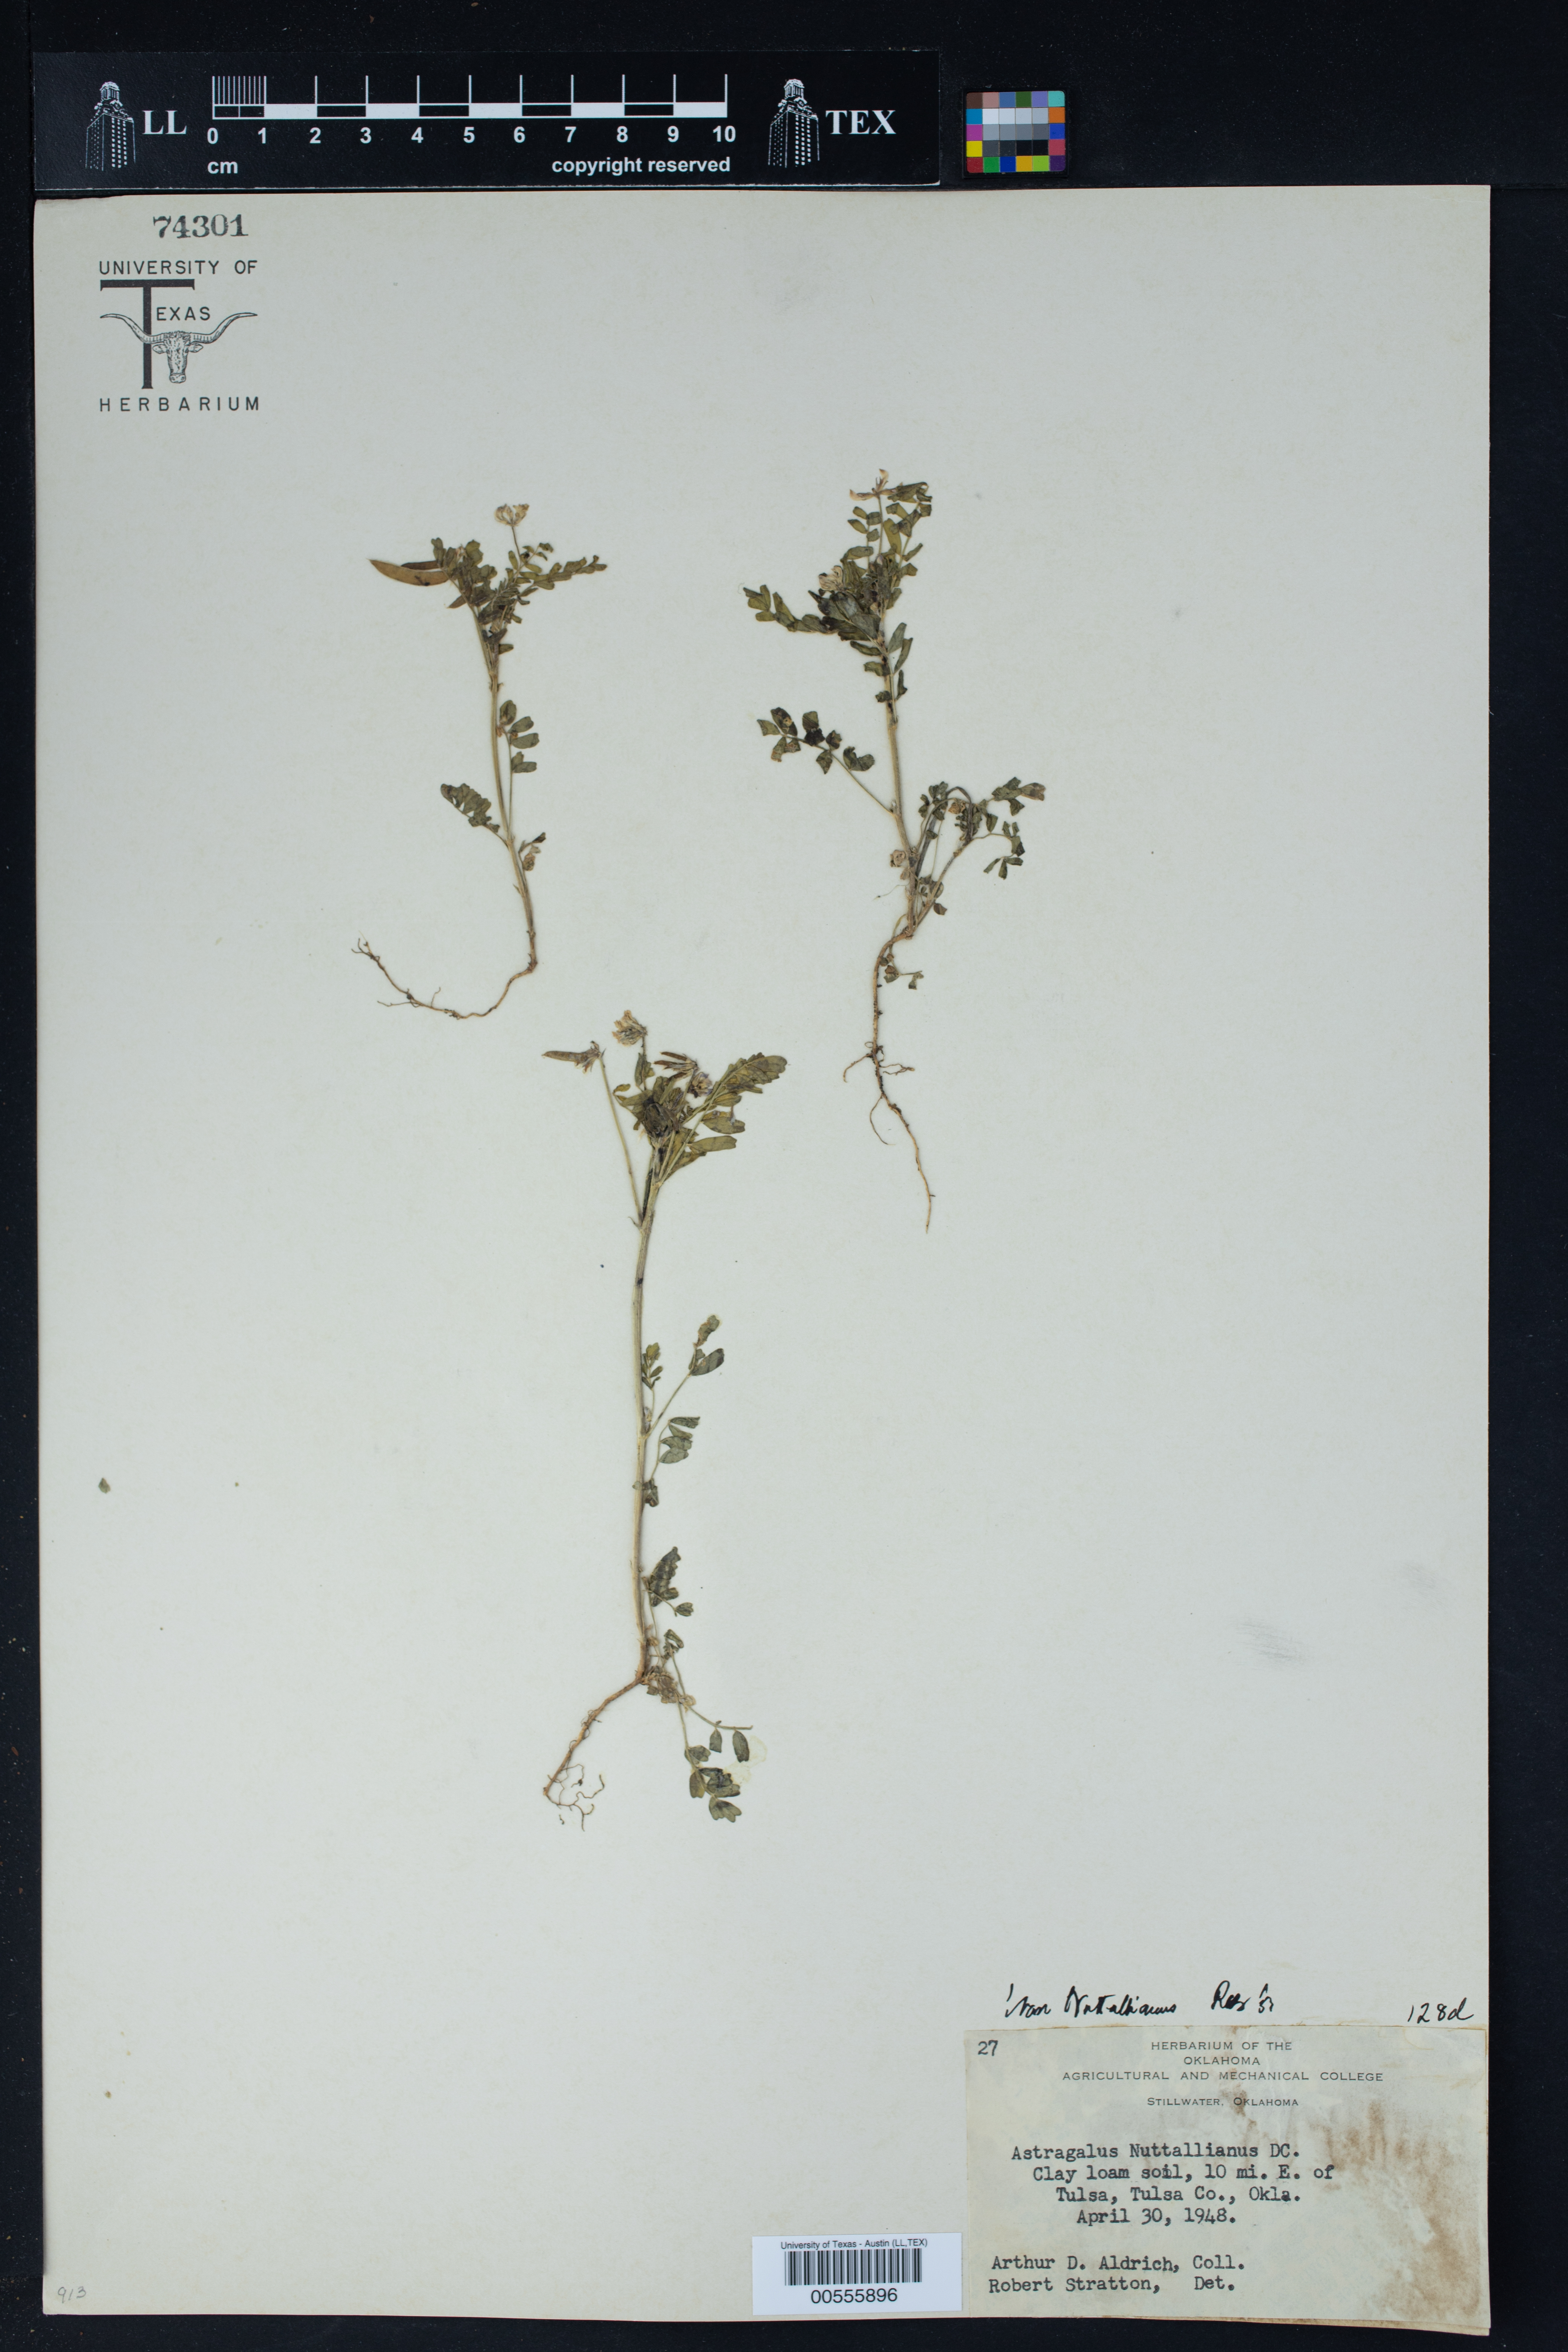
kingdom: Plantae
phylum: Tracheophyta
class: Magnoliopsida
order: Fabales
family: Fabaceae
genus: Astragalus
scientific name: Astragalus nuttallianus
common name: Smallflowered milkvetch
